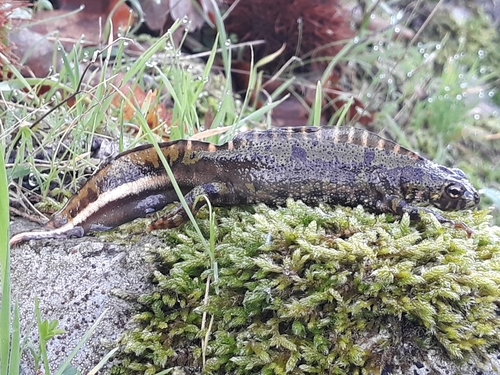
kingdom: Animalia
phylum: Chordata
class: Amphibia
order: Caudata
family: Salamandridae
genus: Triturus
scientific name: Triturus marmoratus
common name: Marbled newt
